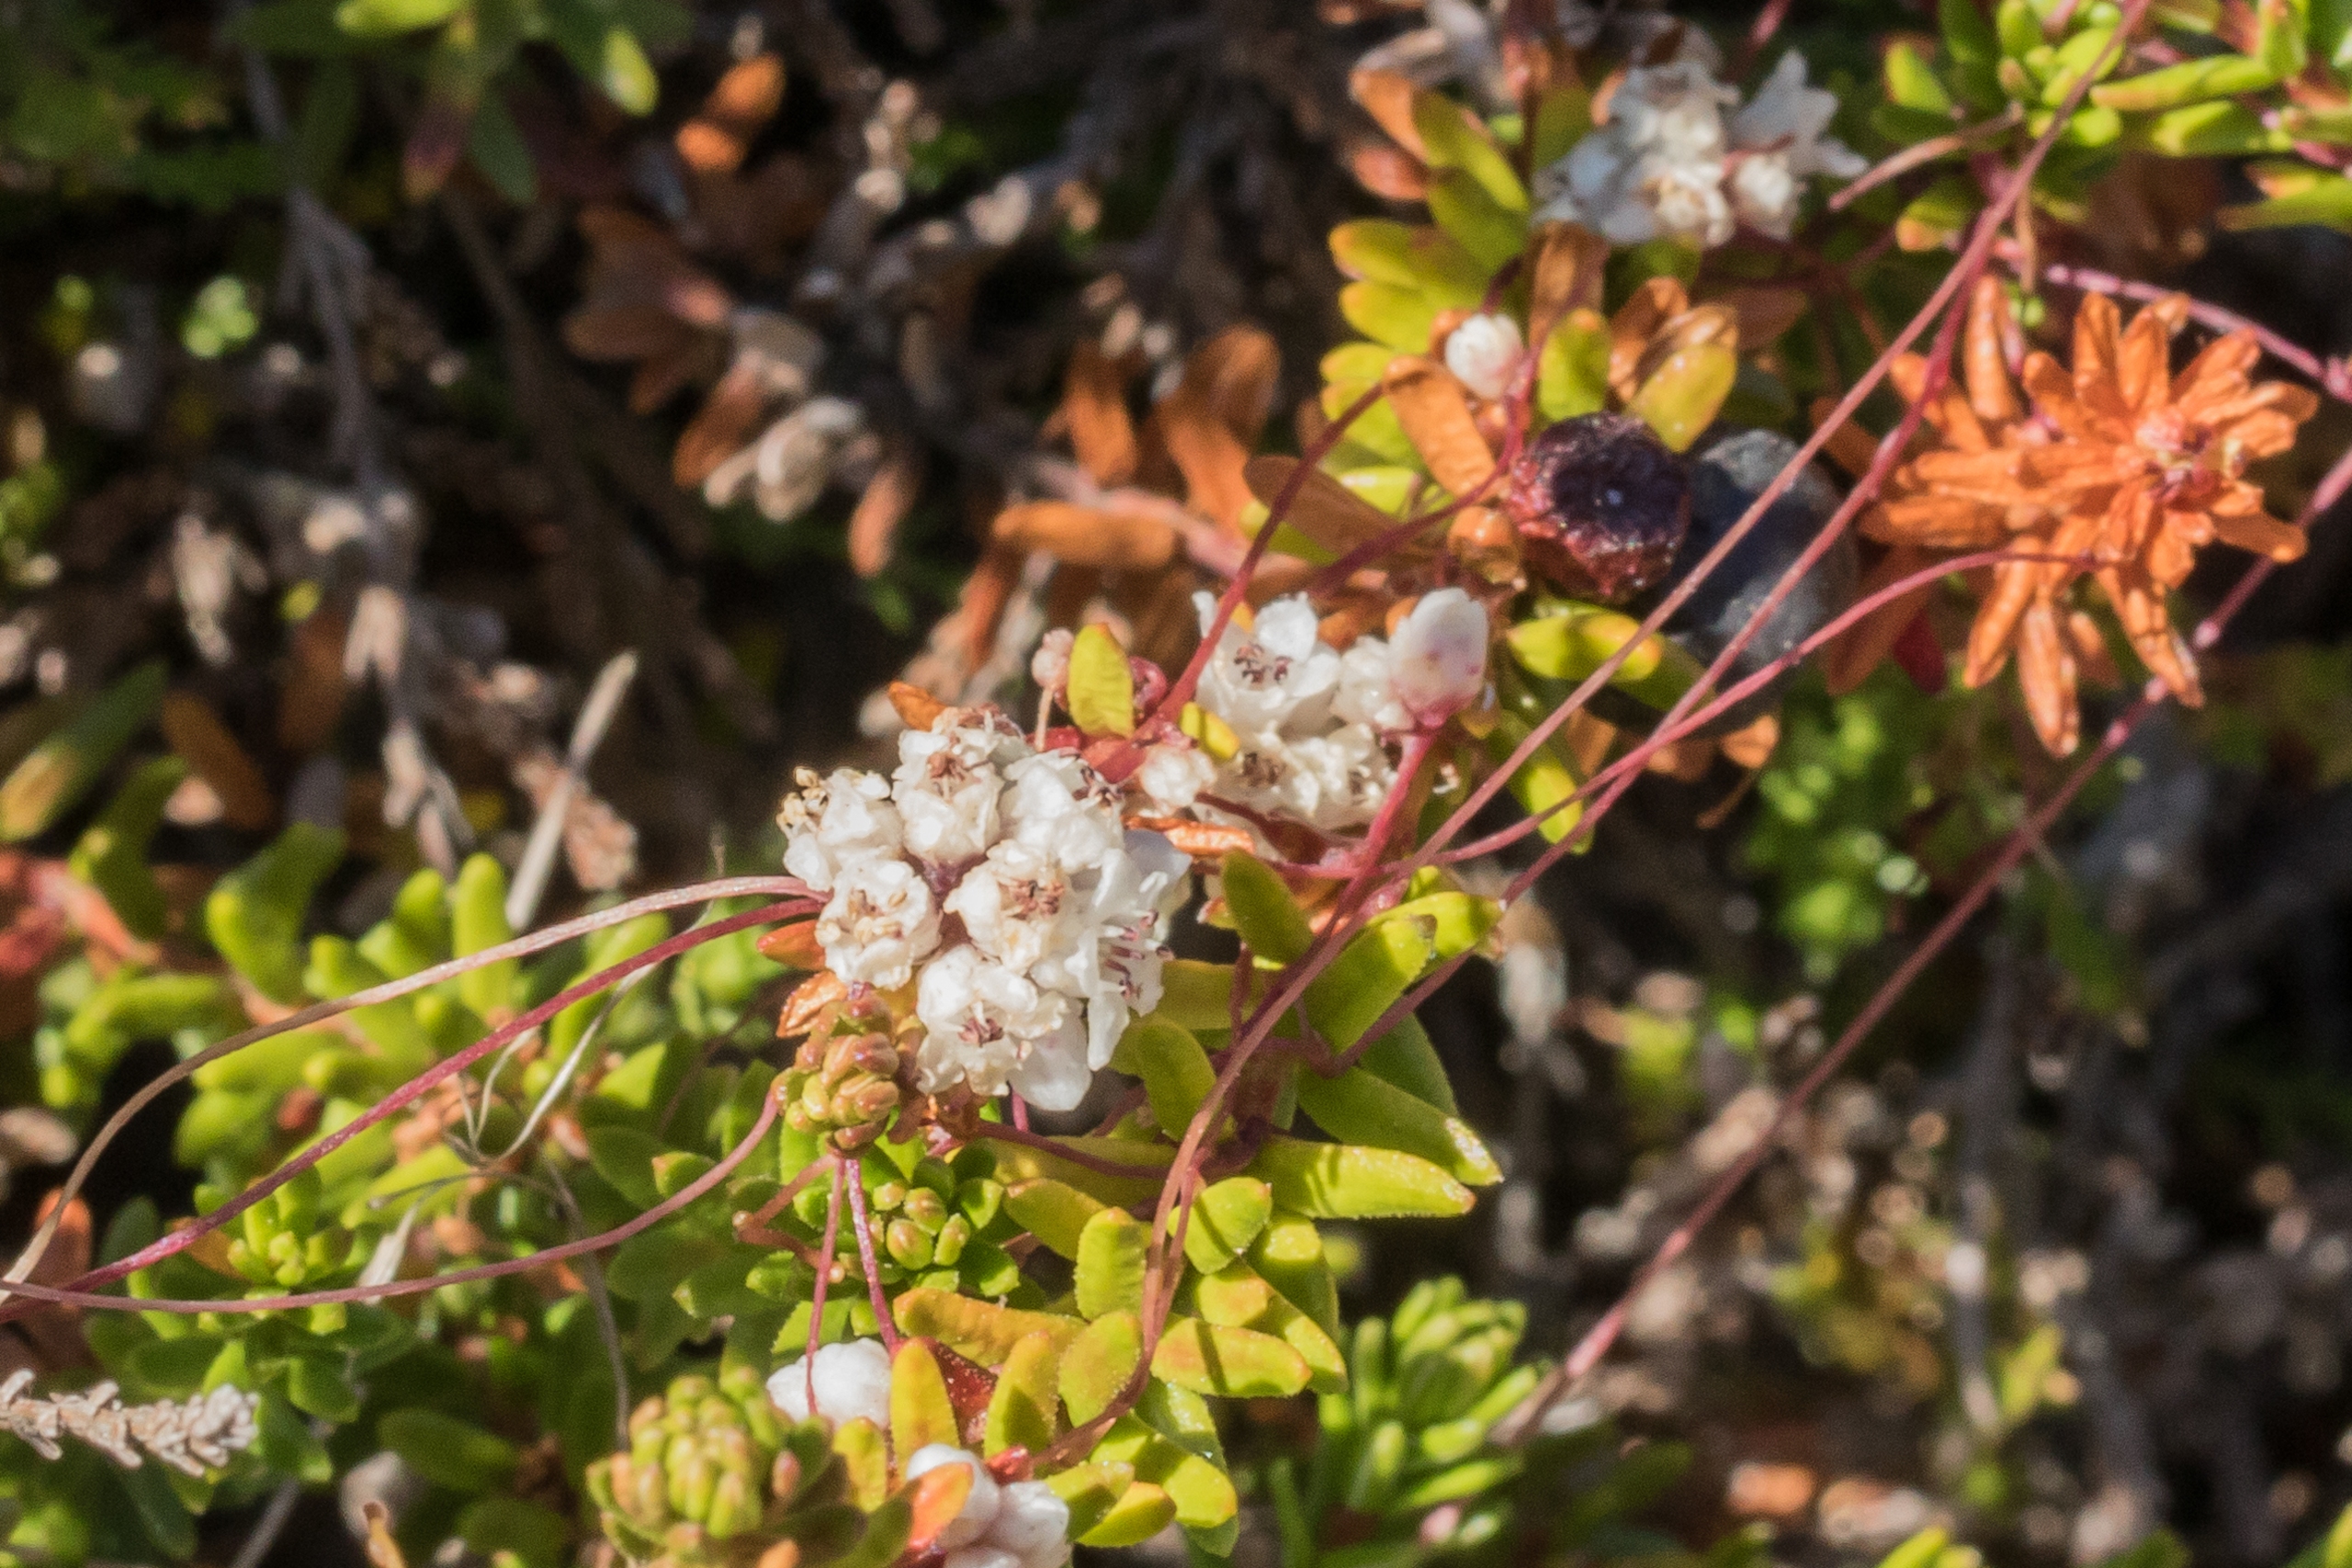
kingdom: Plantae
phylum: Tracheophyta
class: Magnoliopsida
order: Solanales
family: Convolvulaceae
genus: Cuscuta
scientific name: Cuscuta epithymum
